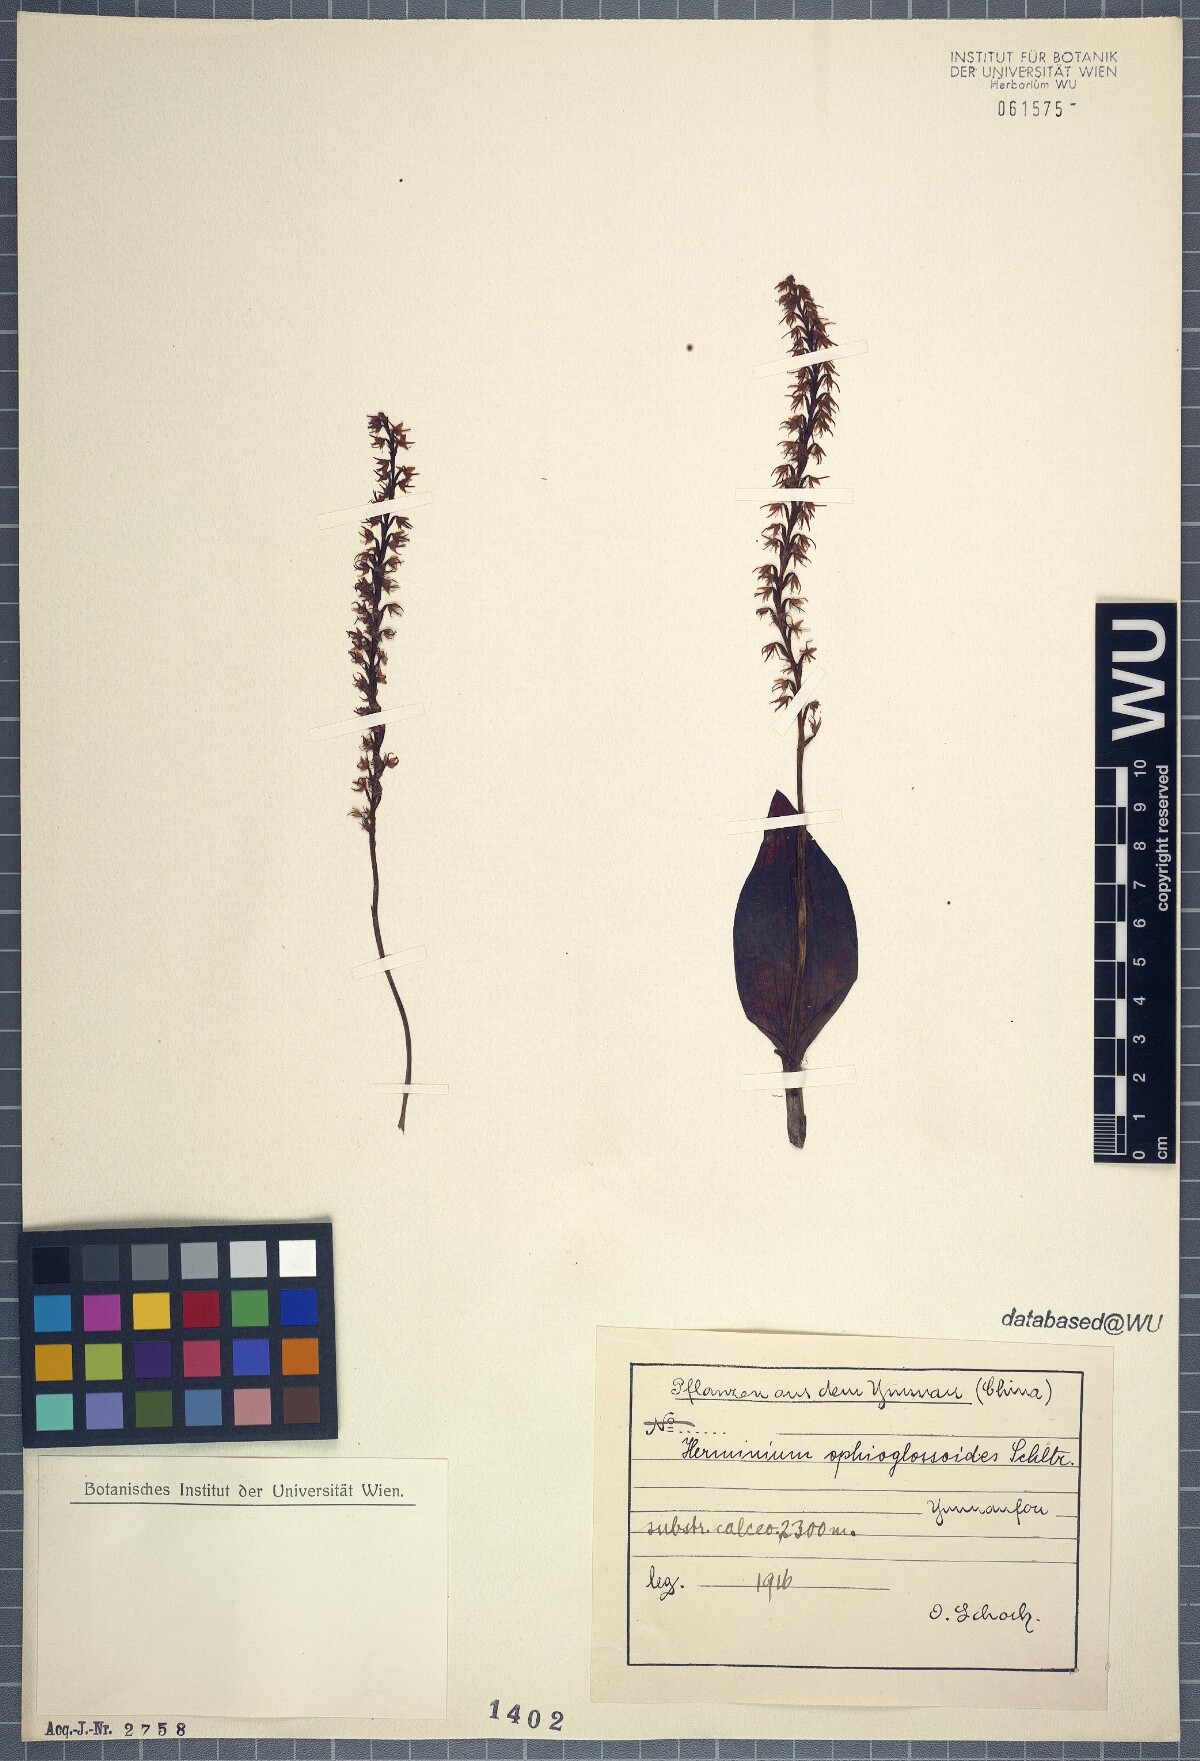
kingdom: Plantae
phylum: Tracheophyta
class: Liliopsida
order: Asparagales
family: Orchidaceae
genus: Herminium
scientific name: Herminium ophioglossoides
